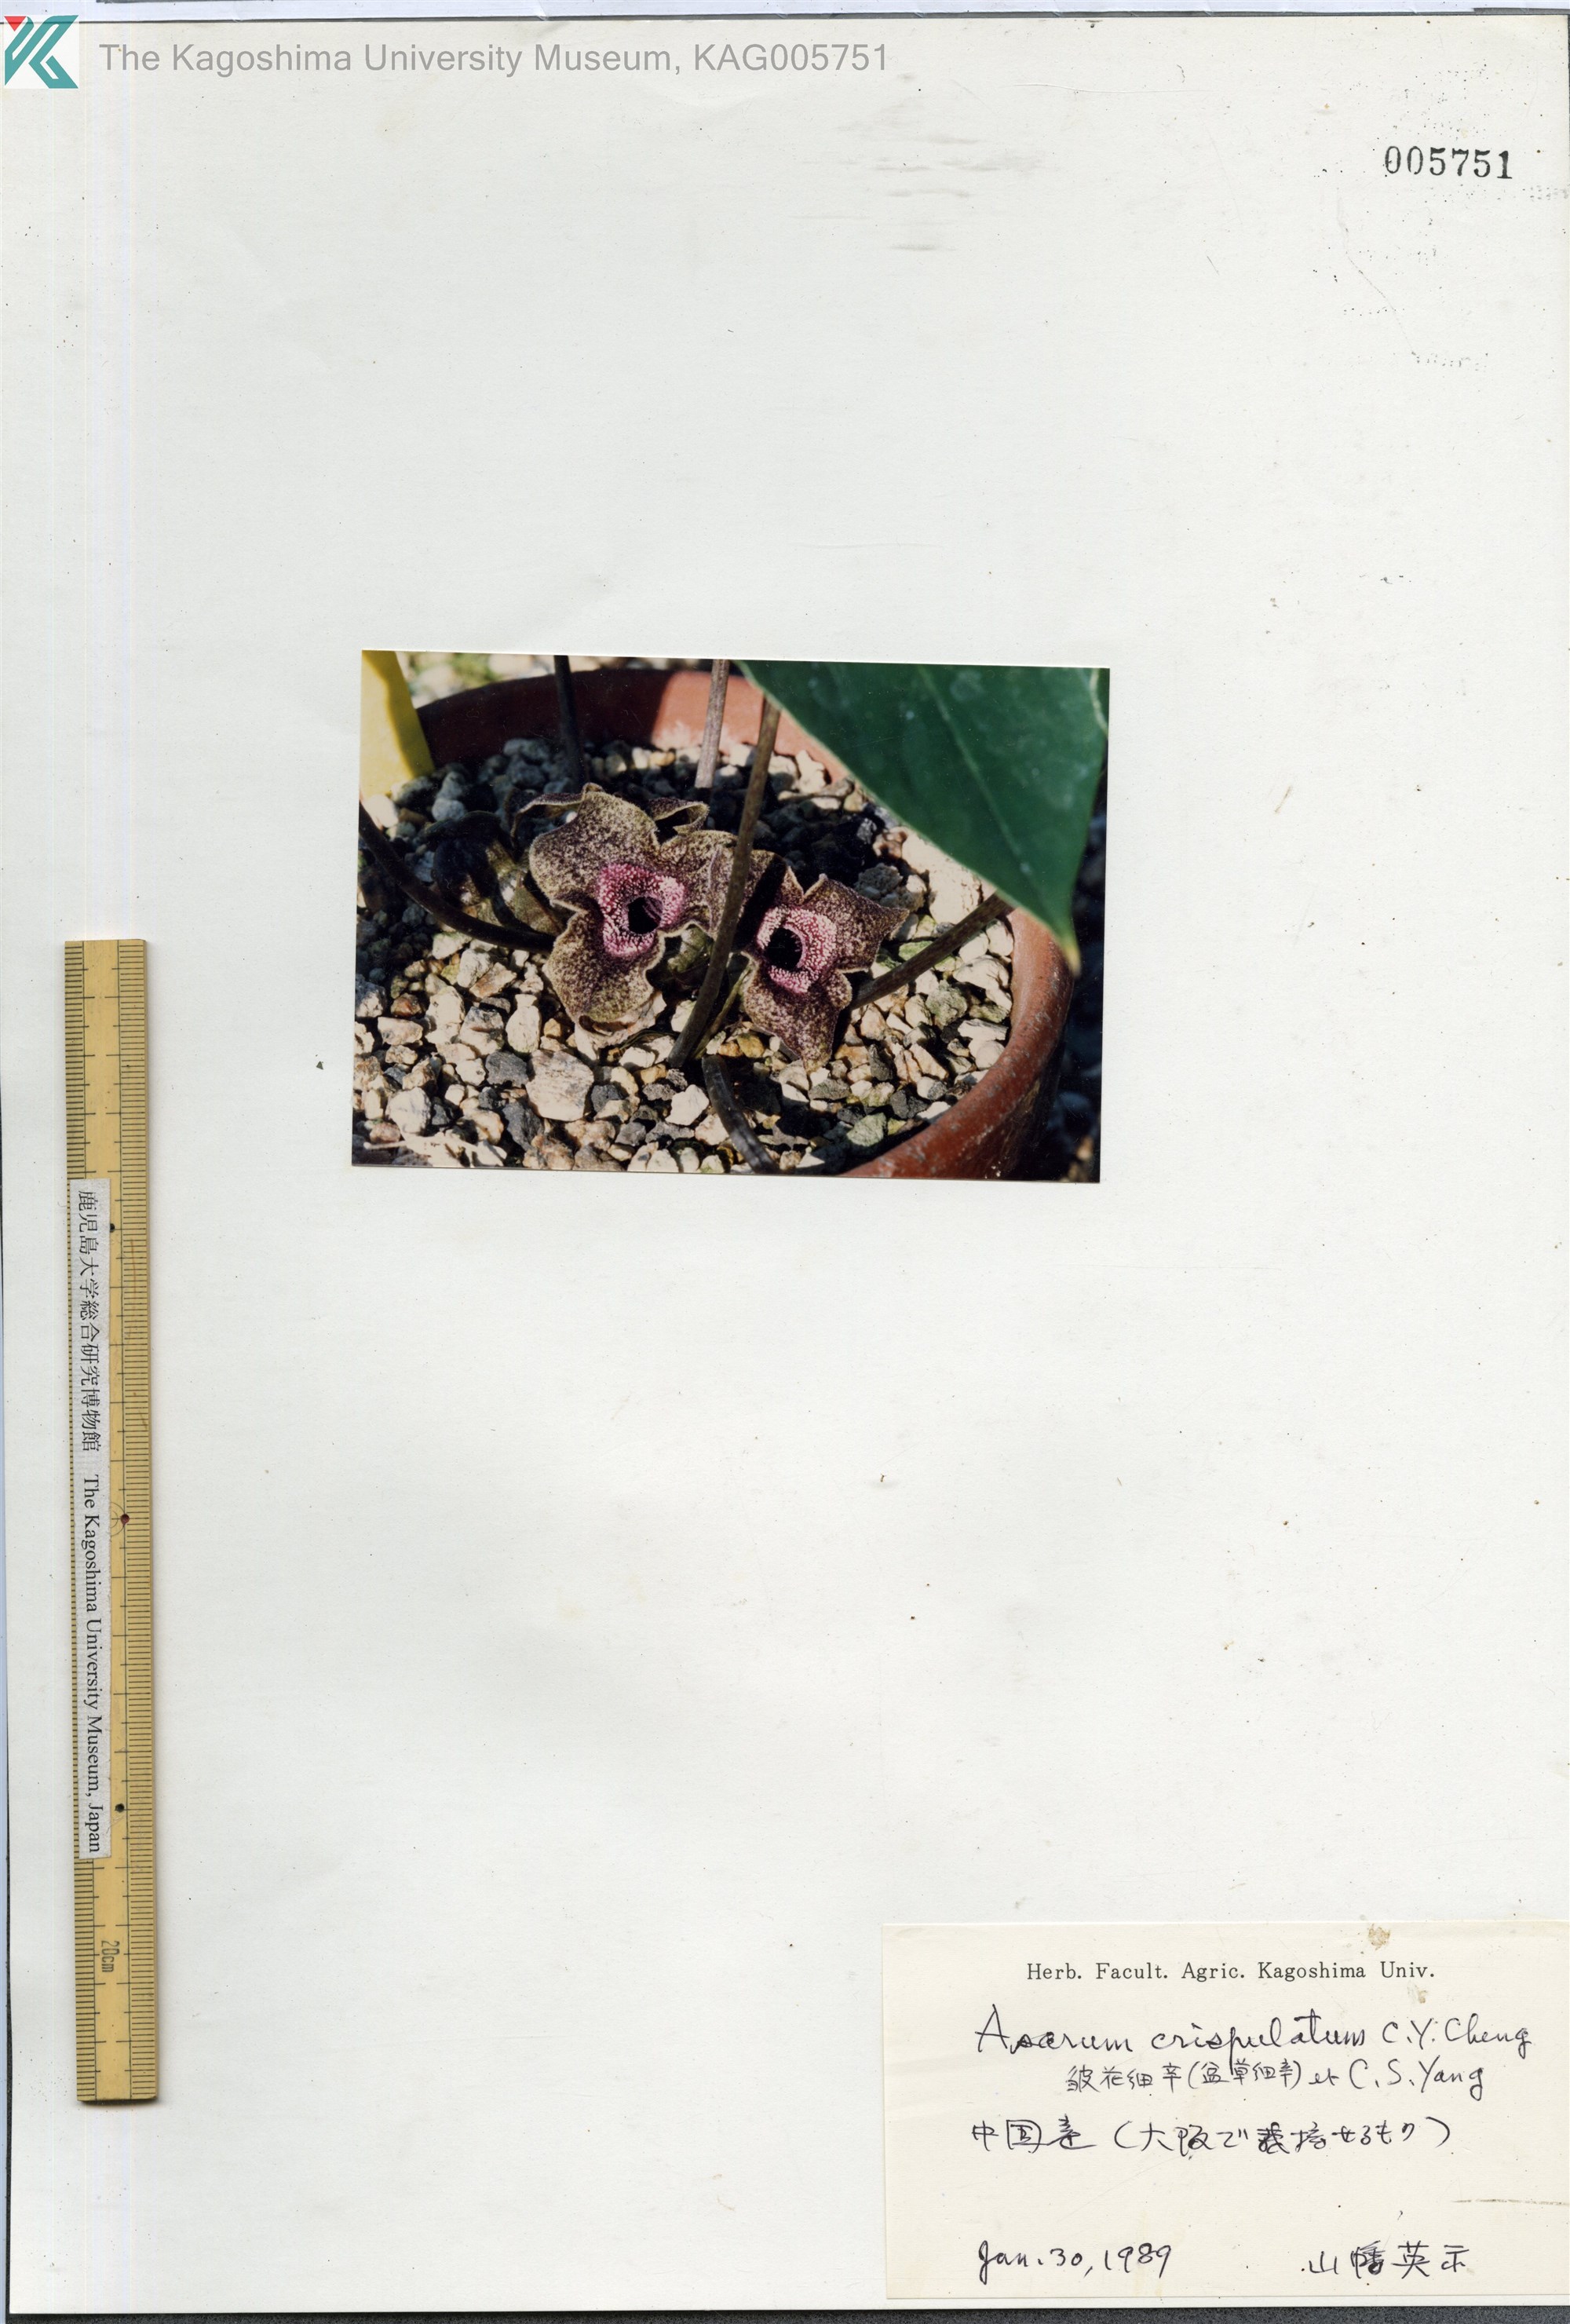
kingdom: Plantae
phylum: Tracheophyta
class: Magnoliopsida
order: Piperales
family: Aristolochiaceae
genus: Asarum
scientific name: Asarum
